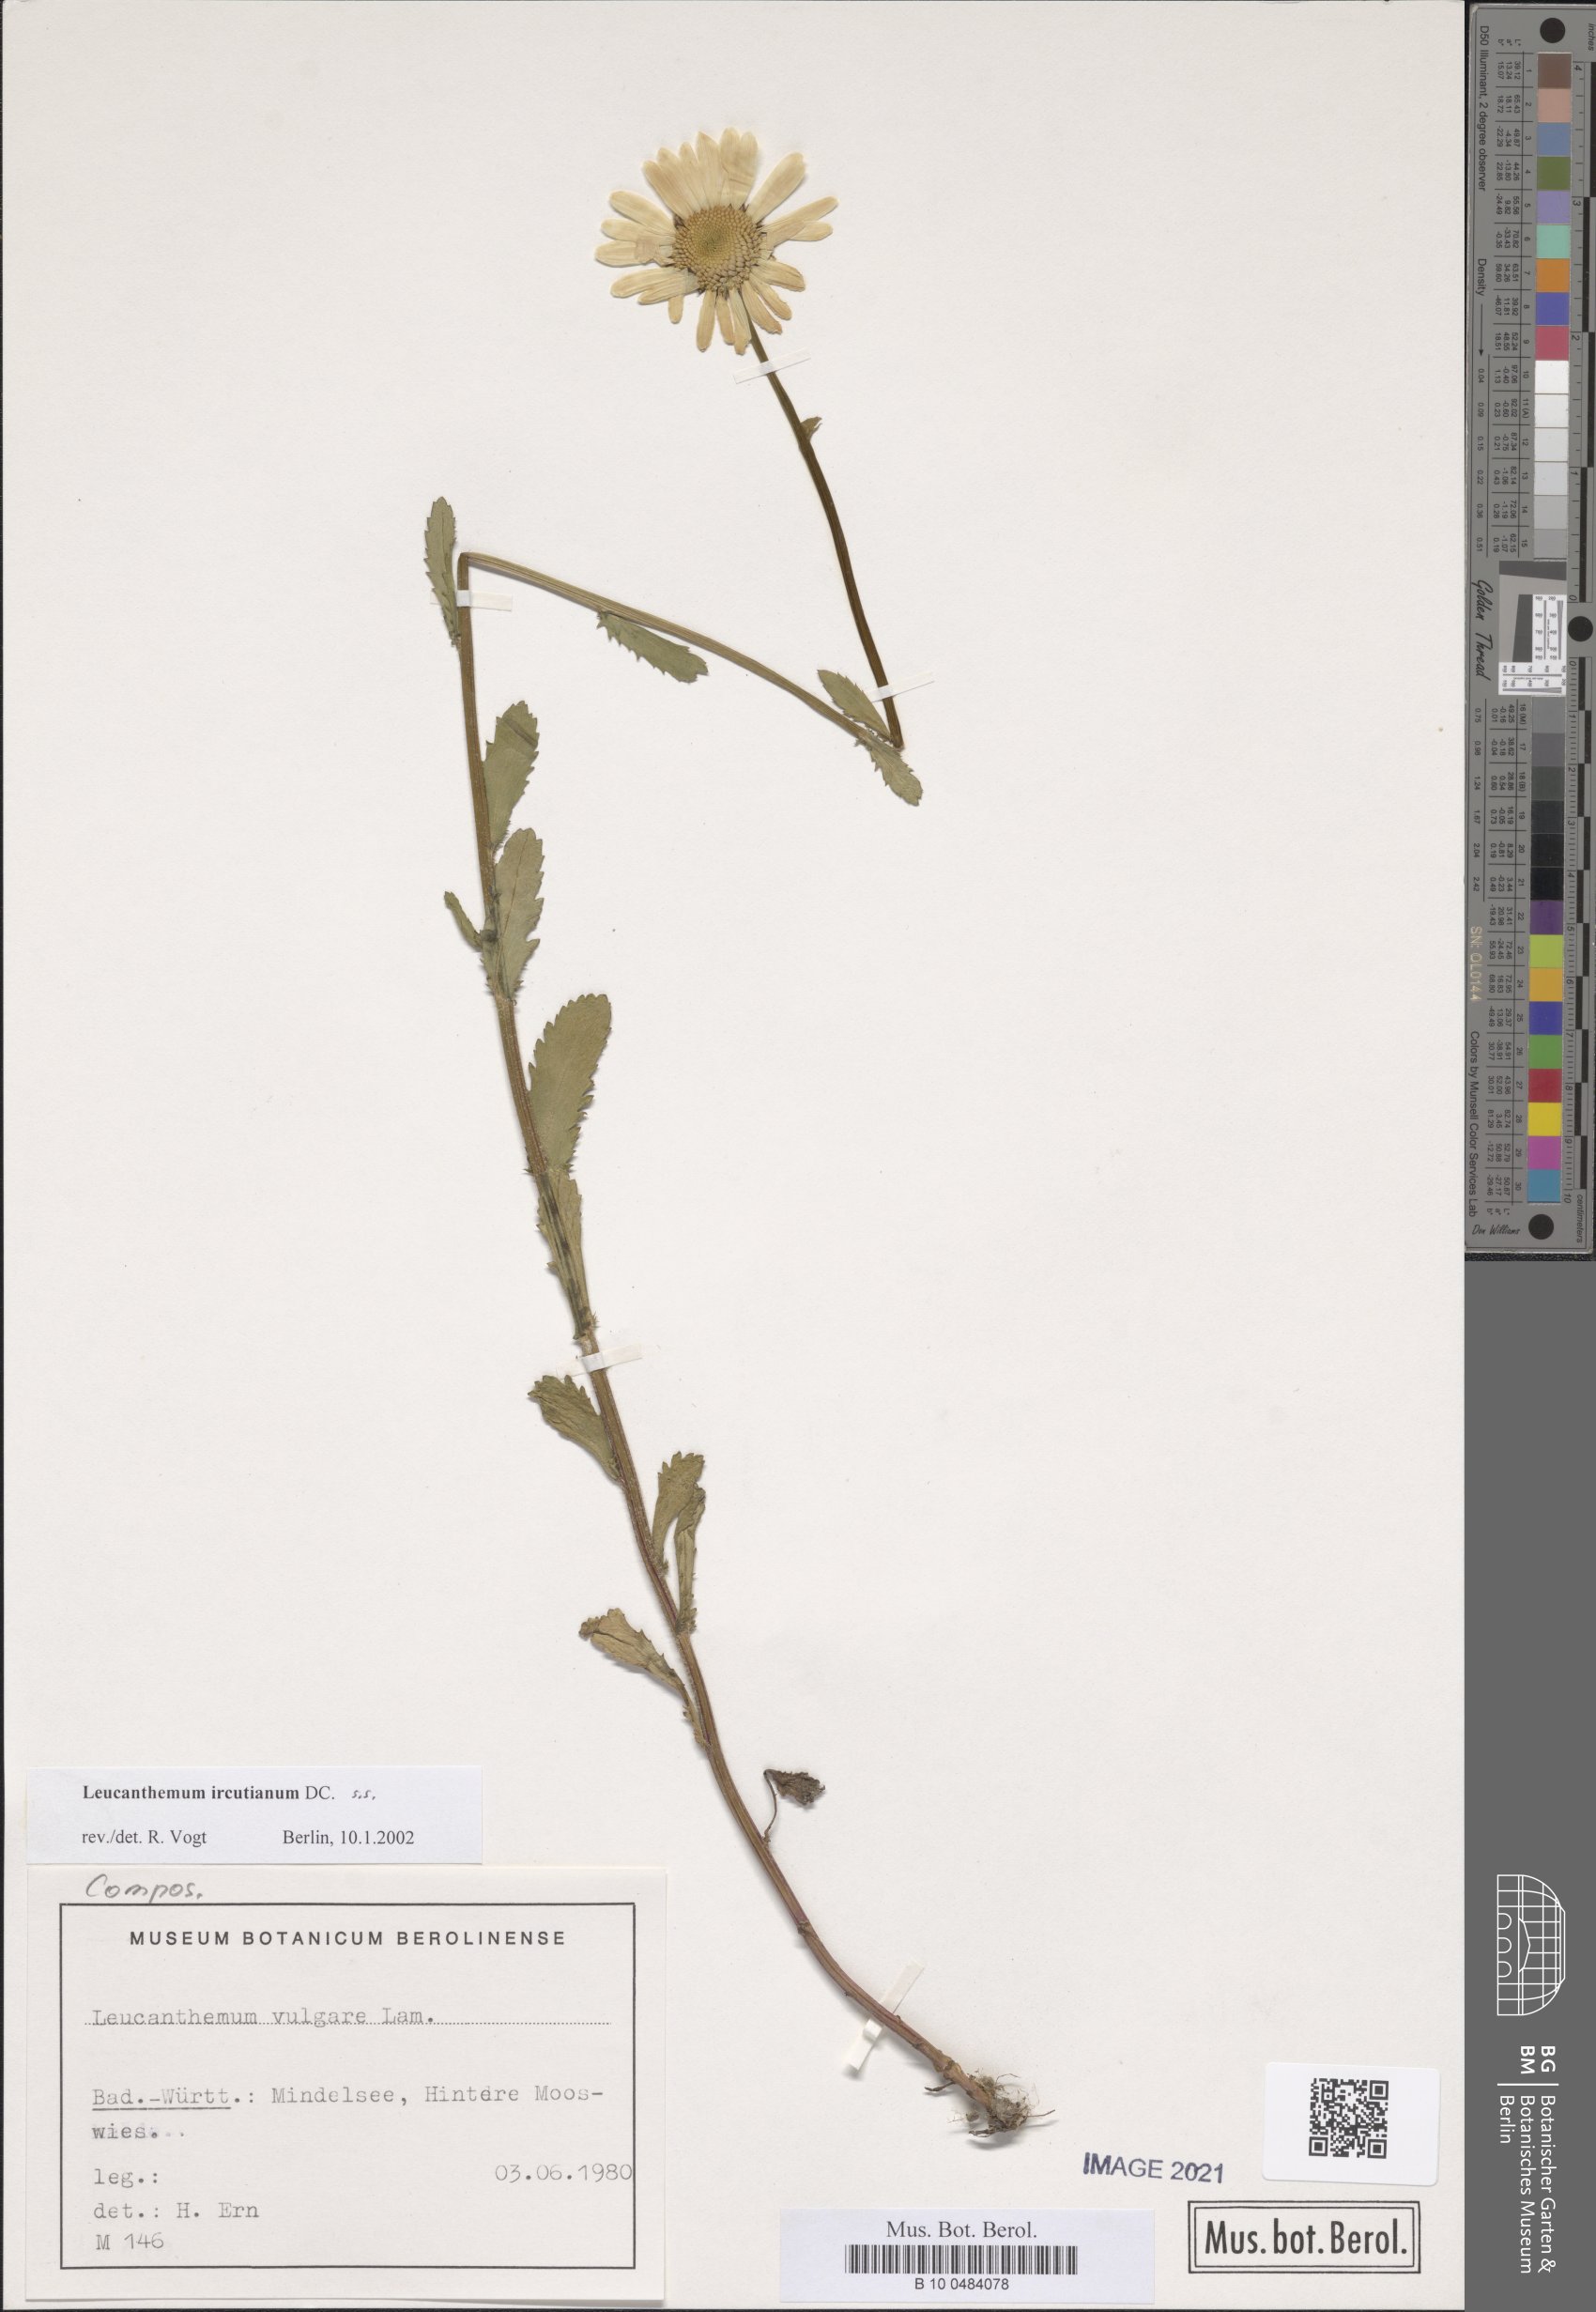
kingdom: Plantae
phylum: Tracheophyta
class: Magnoliopsida
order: Asterales
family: Asteraceae
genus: Leucanthemum
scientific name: Leucanthemum ircutianum
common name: Daisy
